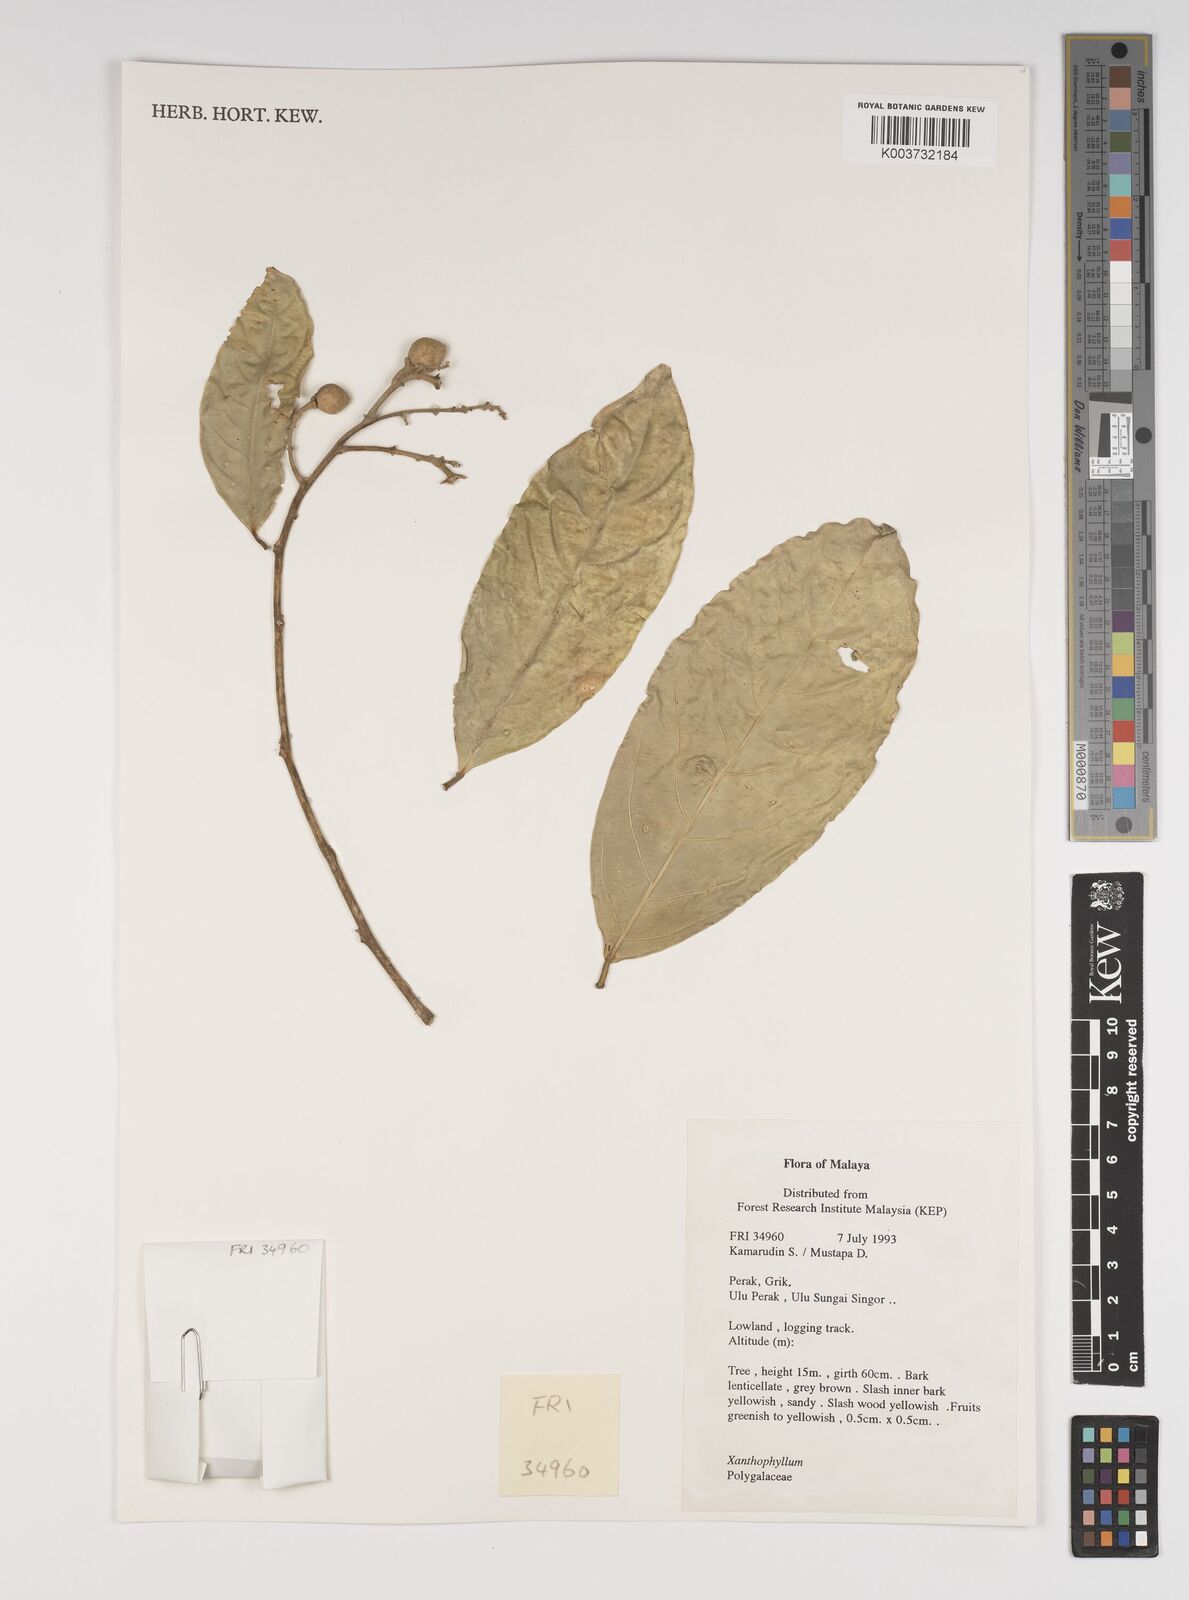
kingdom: Plantae
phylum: Tracheophyta
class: Magnoliopsida
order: Fabales
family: Polygalaceae
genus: Xanthophyllum
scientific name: Xanthophyllum
